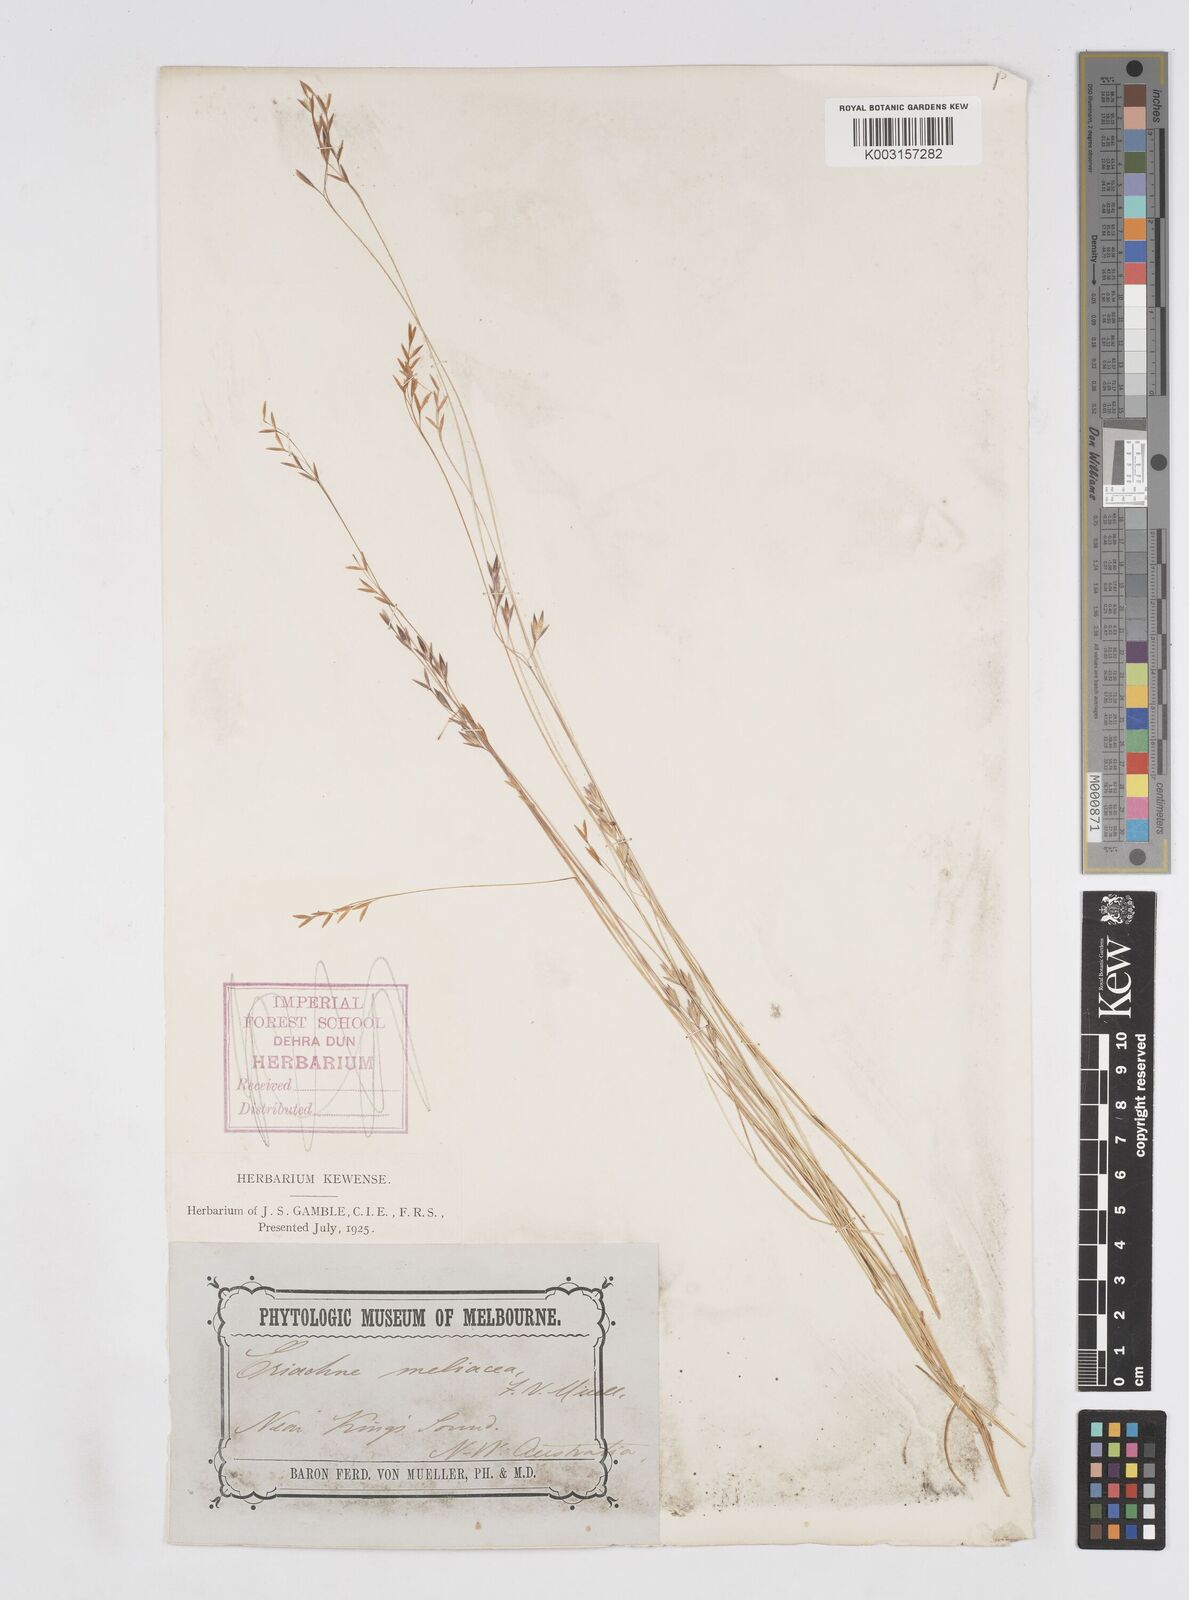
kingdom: Plantae
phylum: Tracheophyta
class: Liliopsida
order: Poales
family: Poaceae
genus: Eriachne
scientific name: Eriachne melicacea
